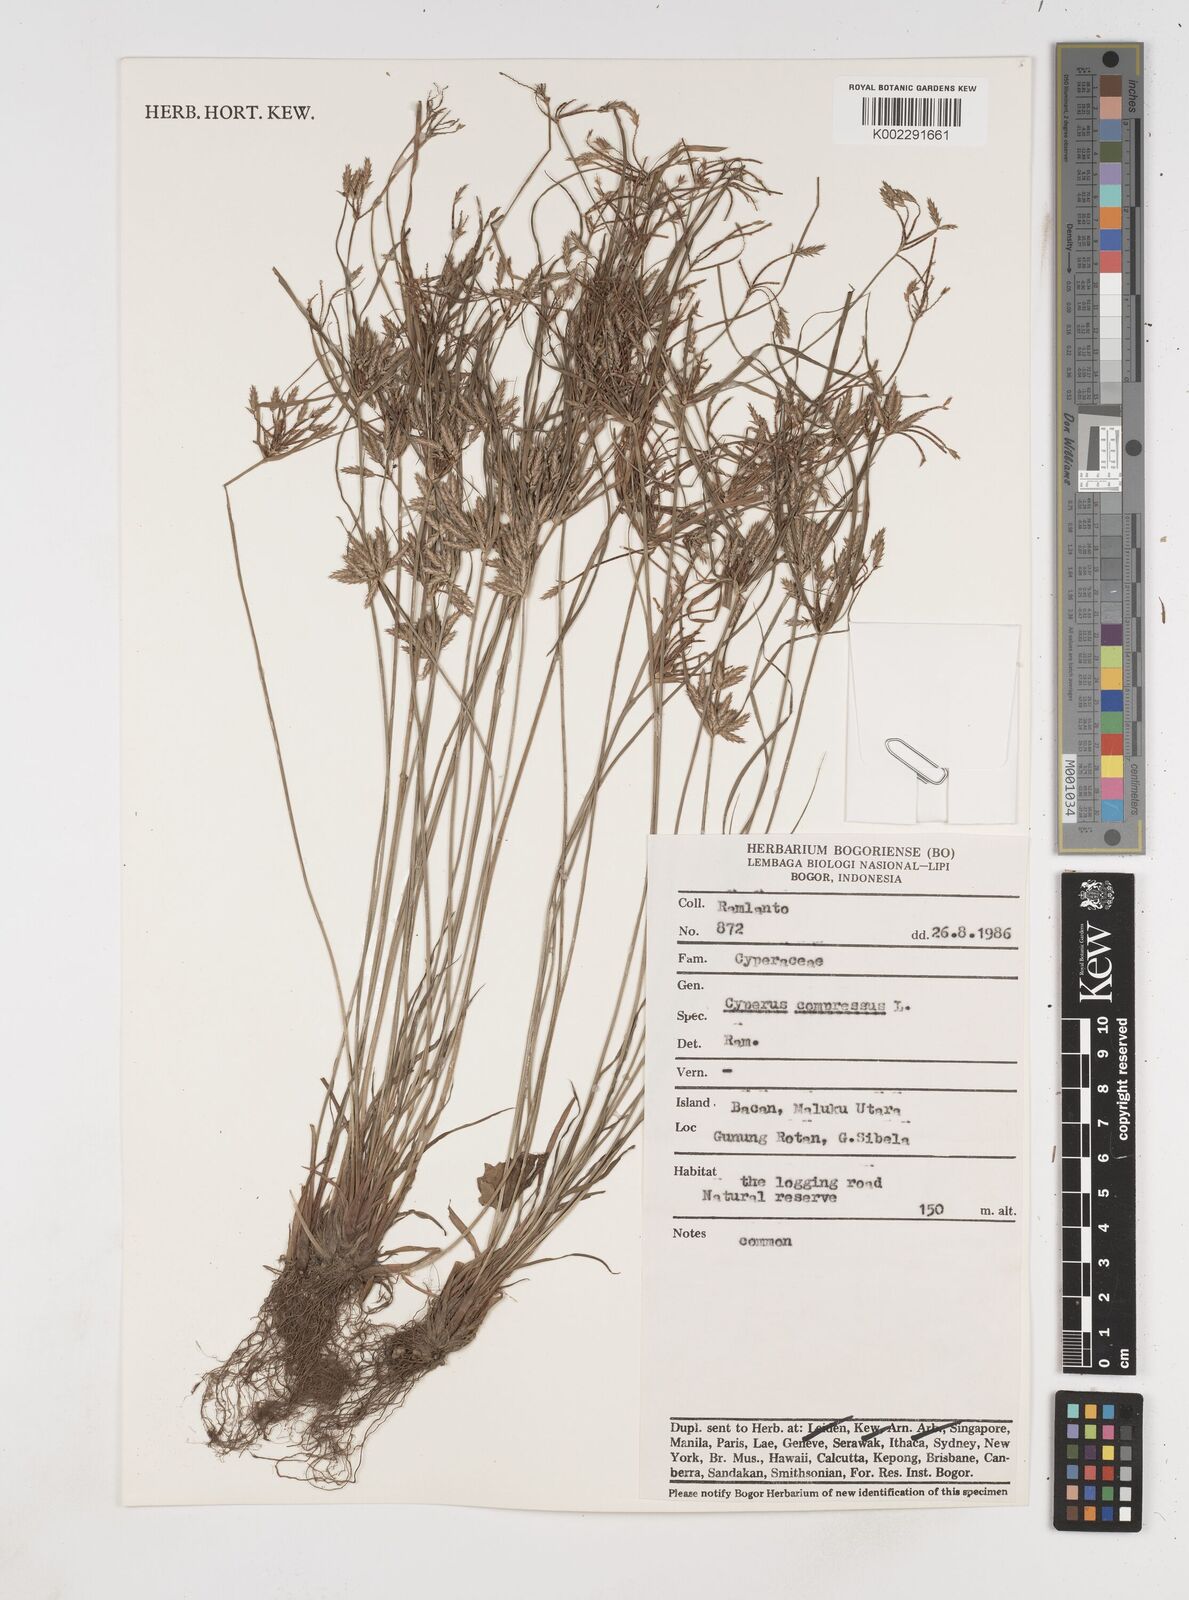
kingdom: Plantae
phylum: Tracheophyta
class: Liliopsida
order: Poales
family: Cyperaceae
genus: Cyperus
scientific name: Cyperus compressus
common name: Poorland flatsedge
